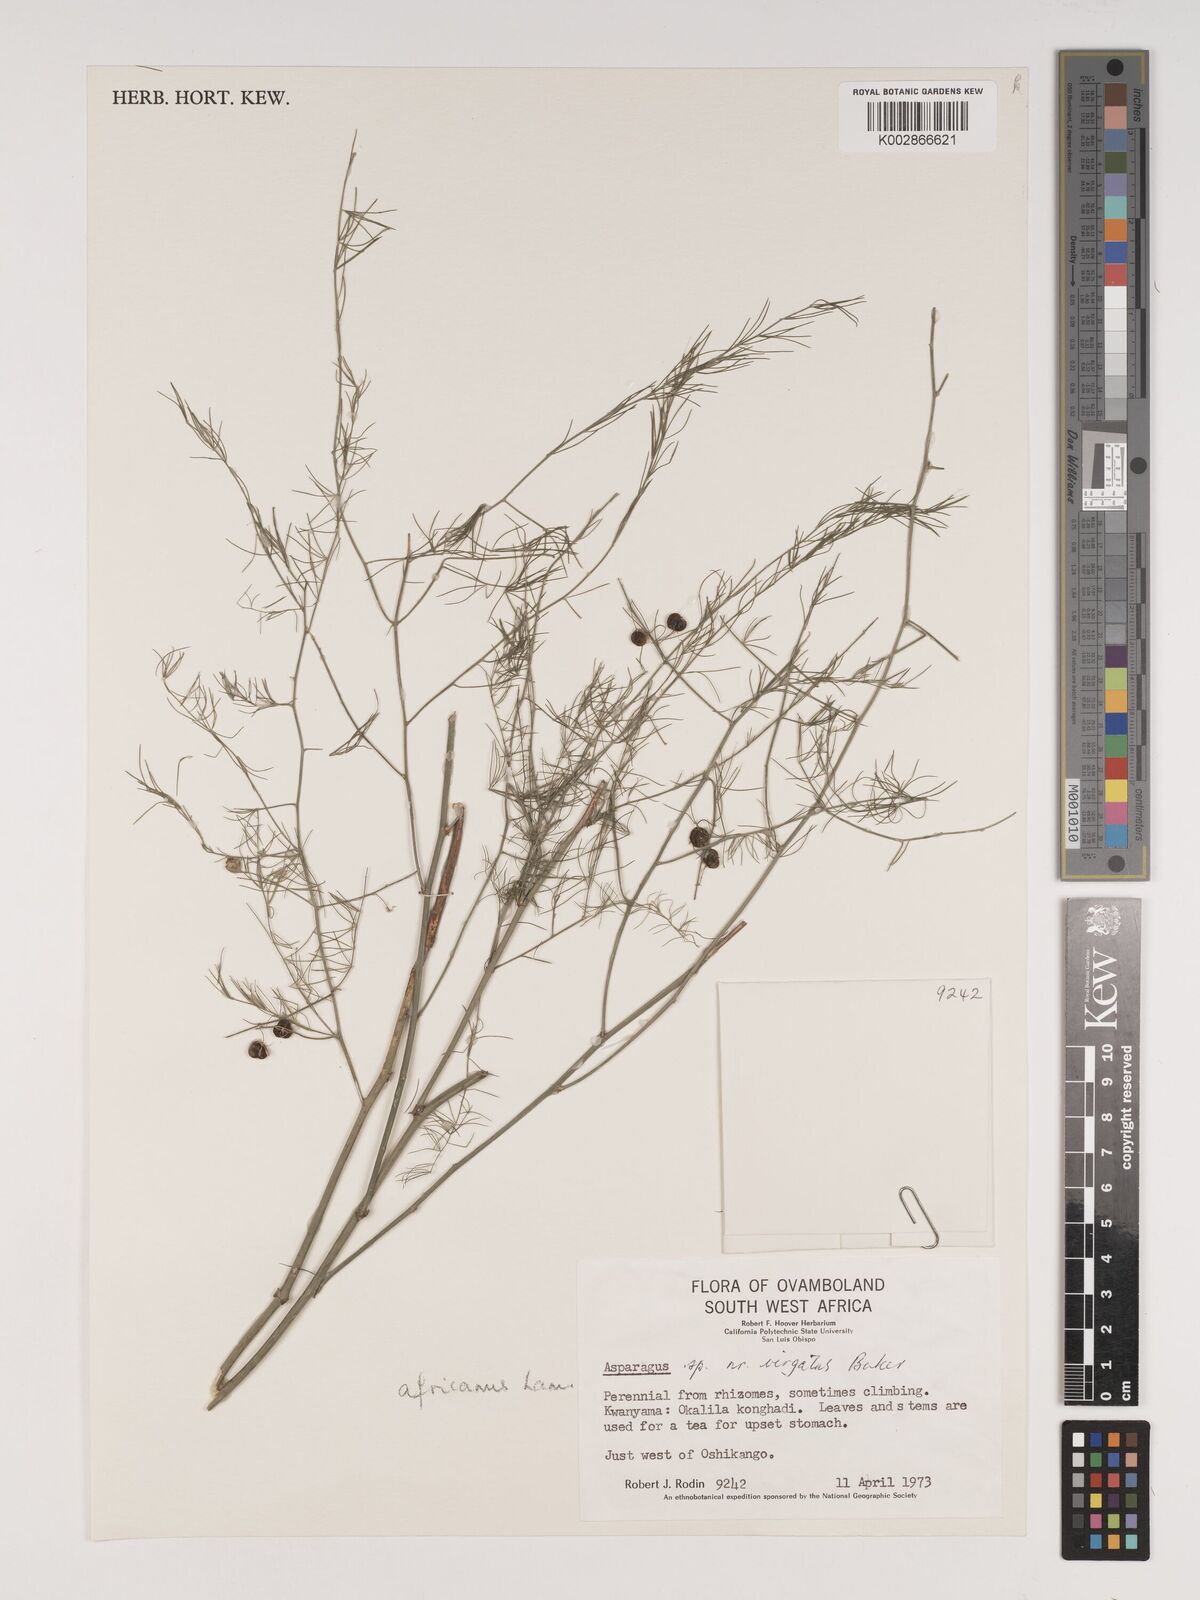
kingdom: Plantae
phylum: Tracheophyta
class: Liliopsida
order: Asparagales
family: Asparagaceae
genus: Asparagus
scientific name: Asparagus virgatus
